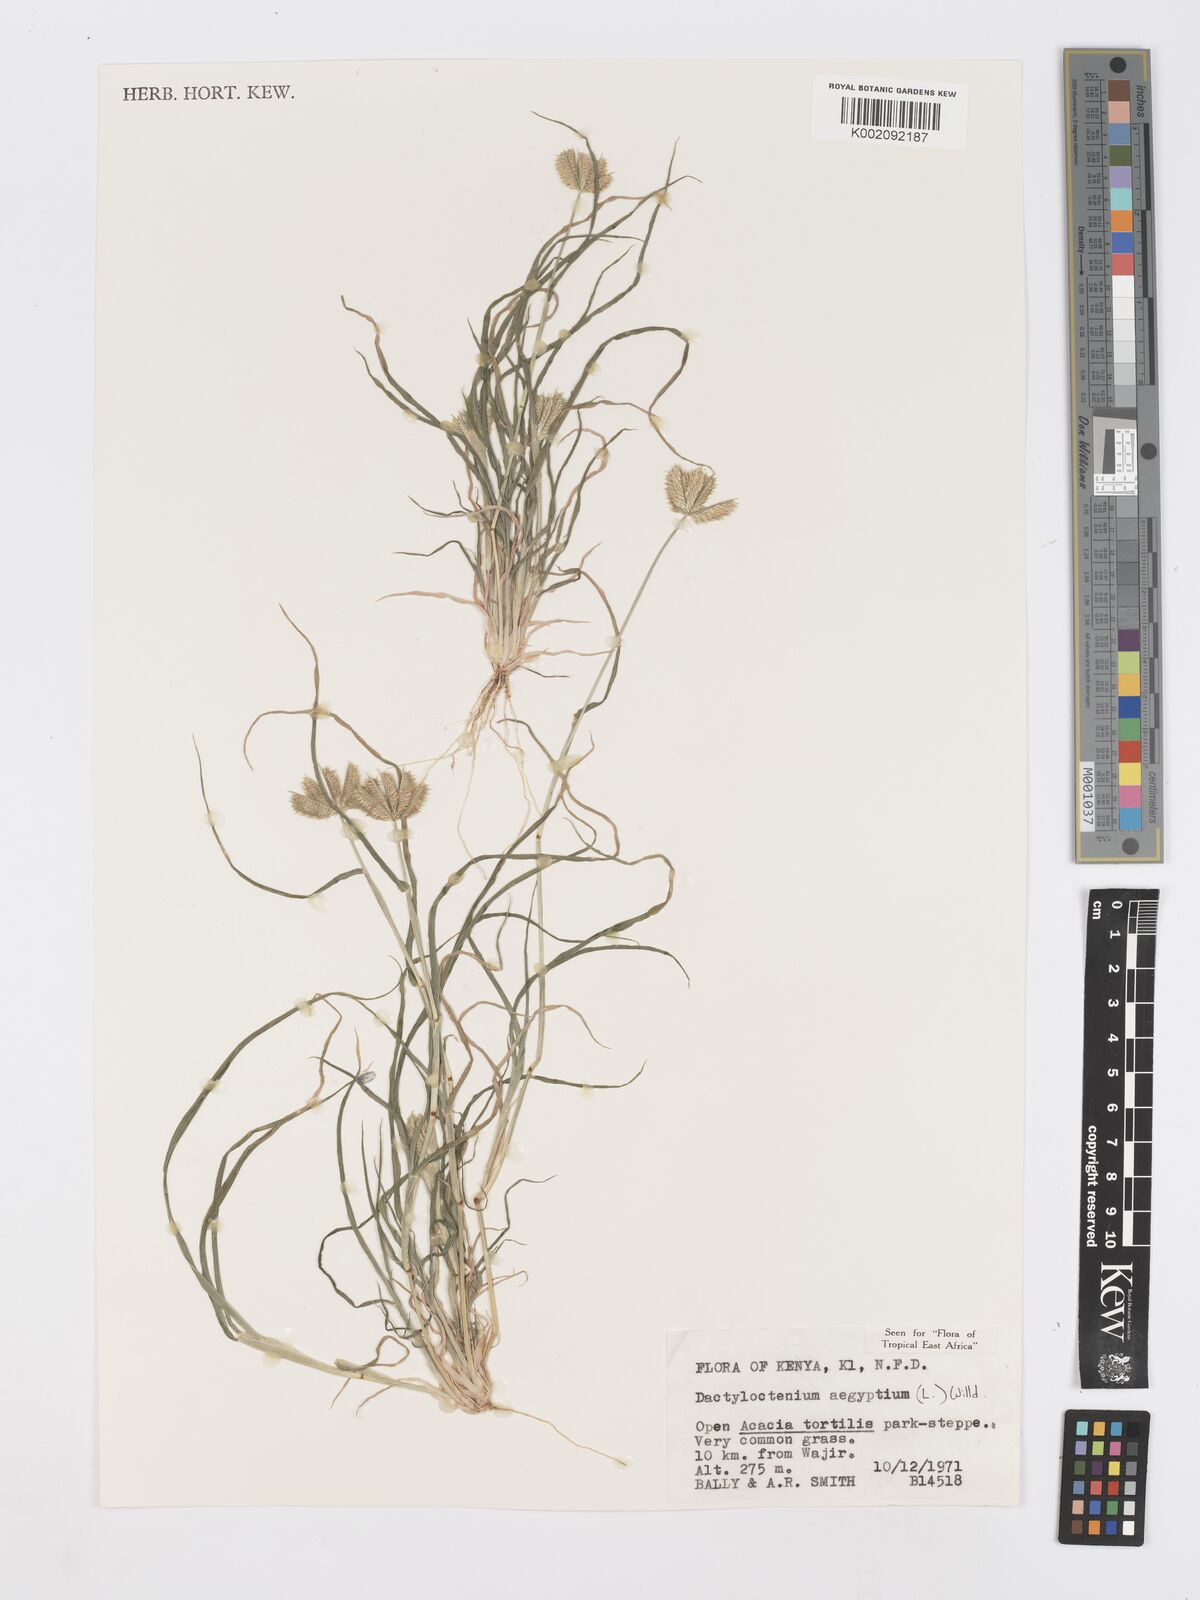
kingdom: Plantae
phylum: Tracheophyta
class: Liliopsida
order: Poales
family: Poaceae
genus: Dactyloctenium
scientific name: Dactyloctenium aegyptium
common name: Egyptian grass
